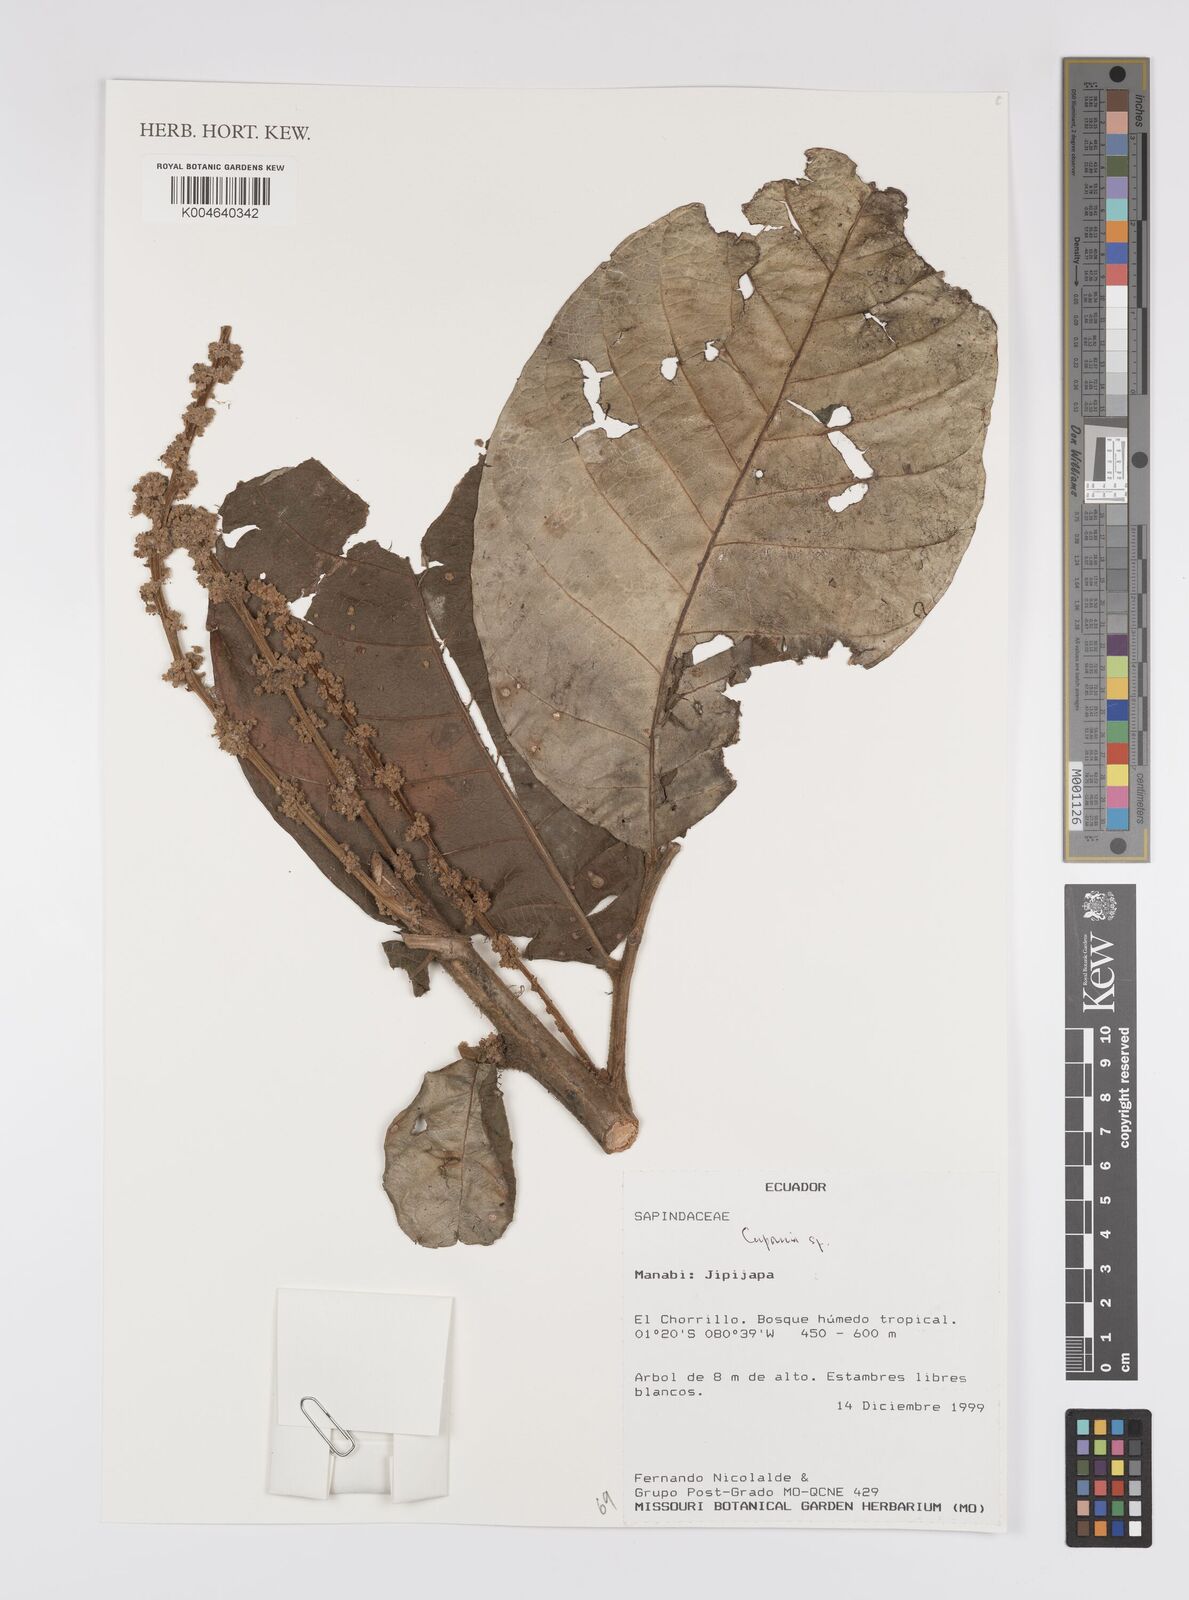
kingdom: Plantae
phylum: Tracheophyta
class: Magnoliopsida
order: Sapindales
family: Sapindaceae
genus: Cupania
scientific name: Cupania
